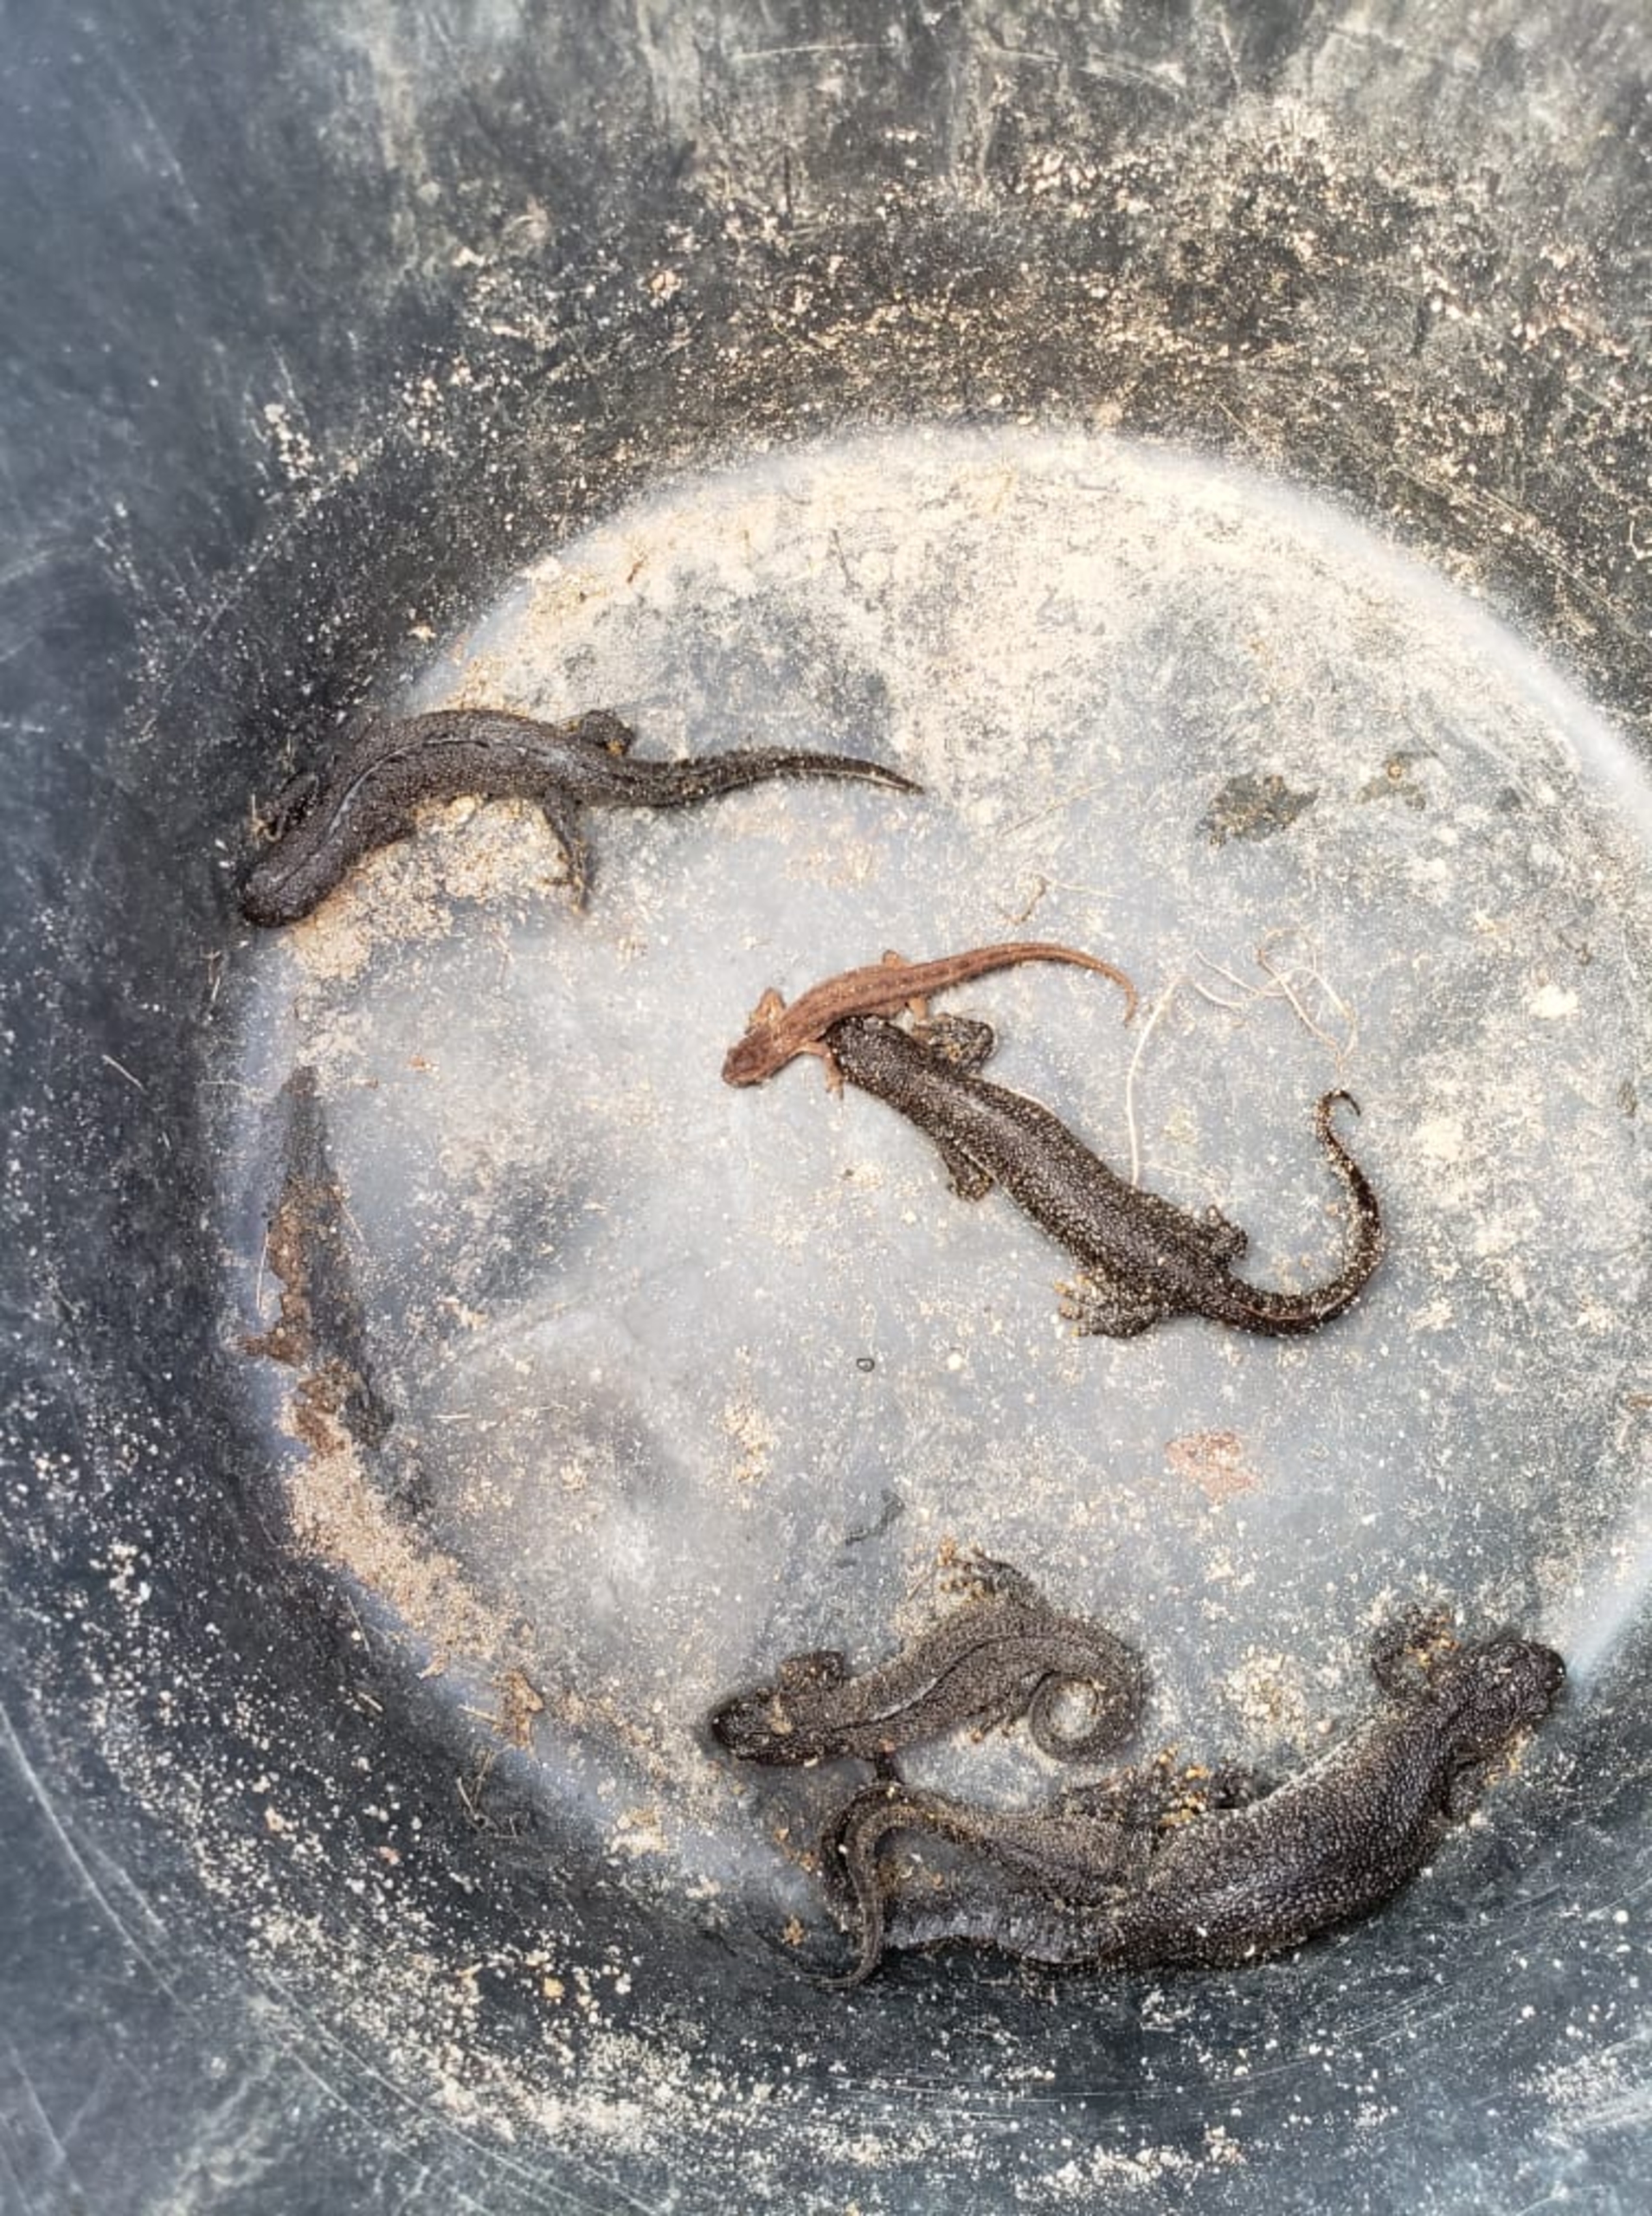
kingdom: Animalia
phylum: Chordata
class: Amphibia
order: Caudata
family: Salamandridae
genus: Triturus
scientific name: Triturus cristatus
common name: Stor vandsalamander
